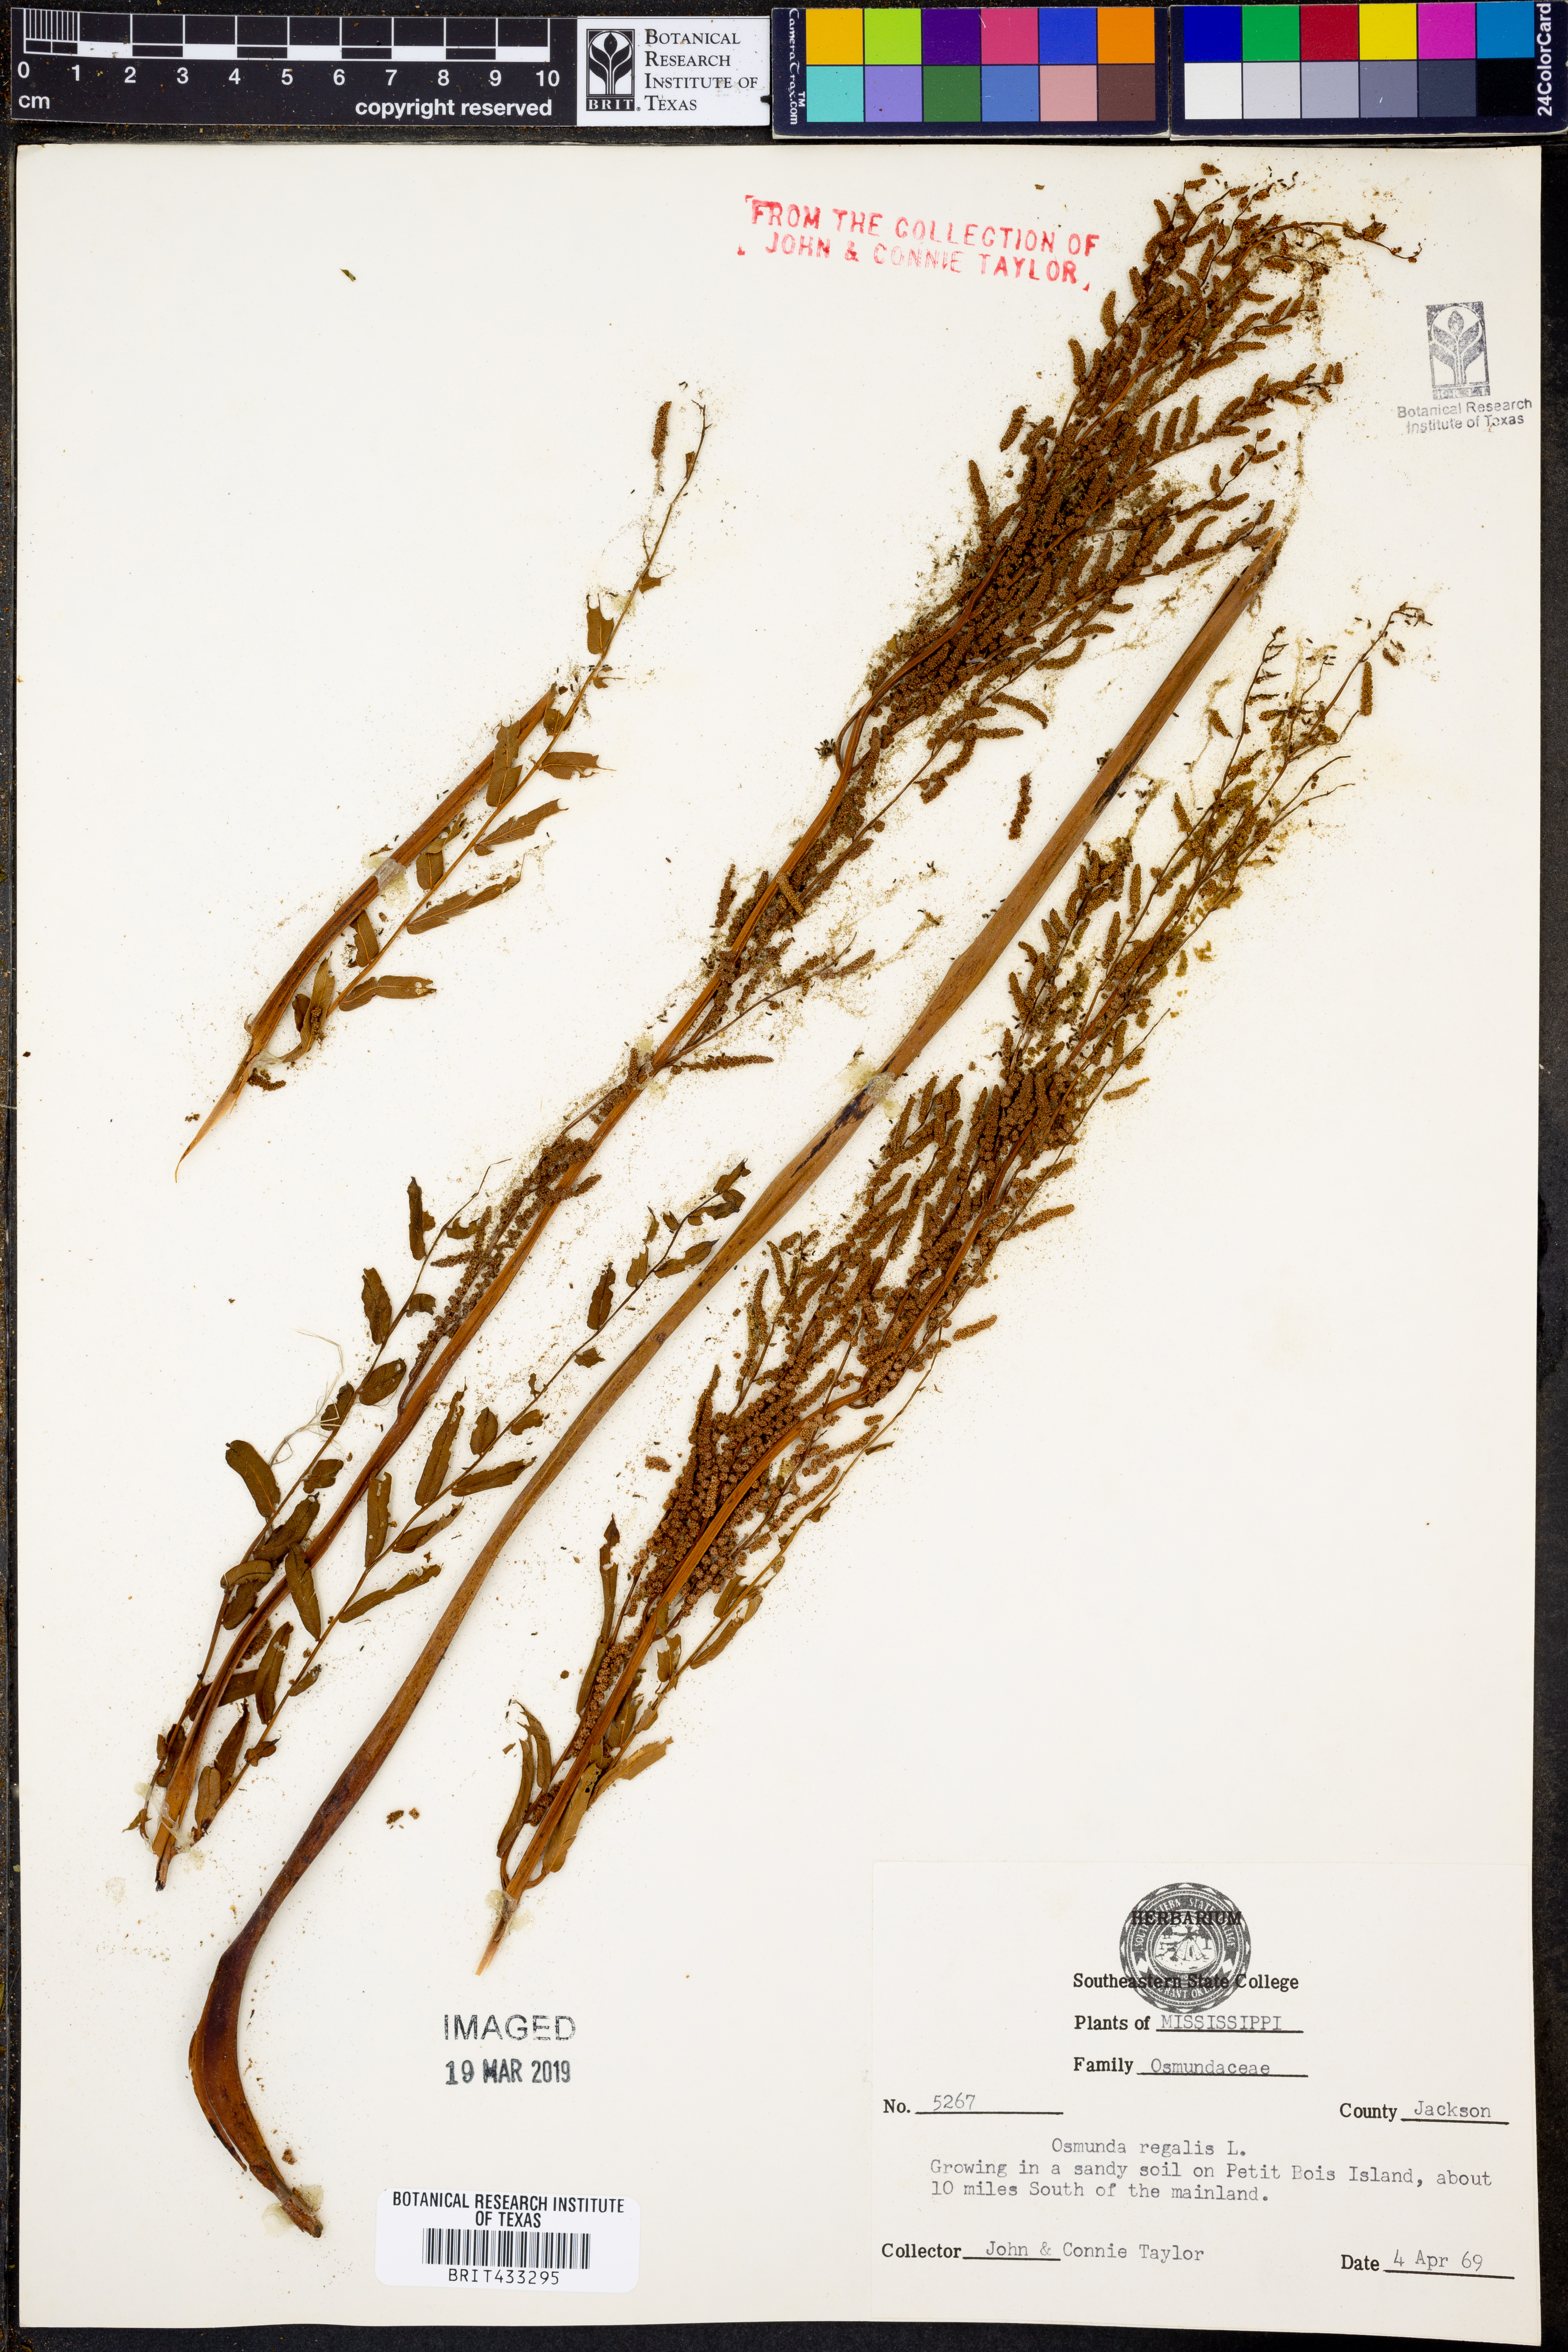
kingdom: Plantae
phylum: Tracheophyta
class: Polypodiopsida
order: Osmundales
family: Osmundaceae
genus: Osmunda
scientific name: Osmunda regalis
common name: Royal fern
